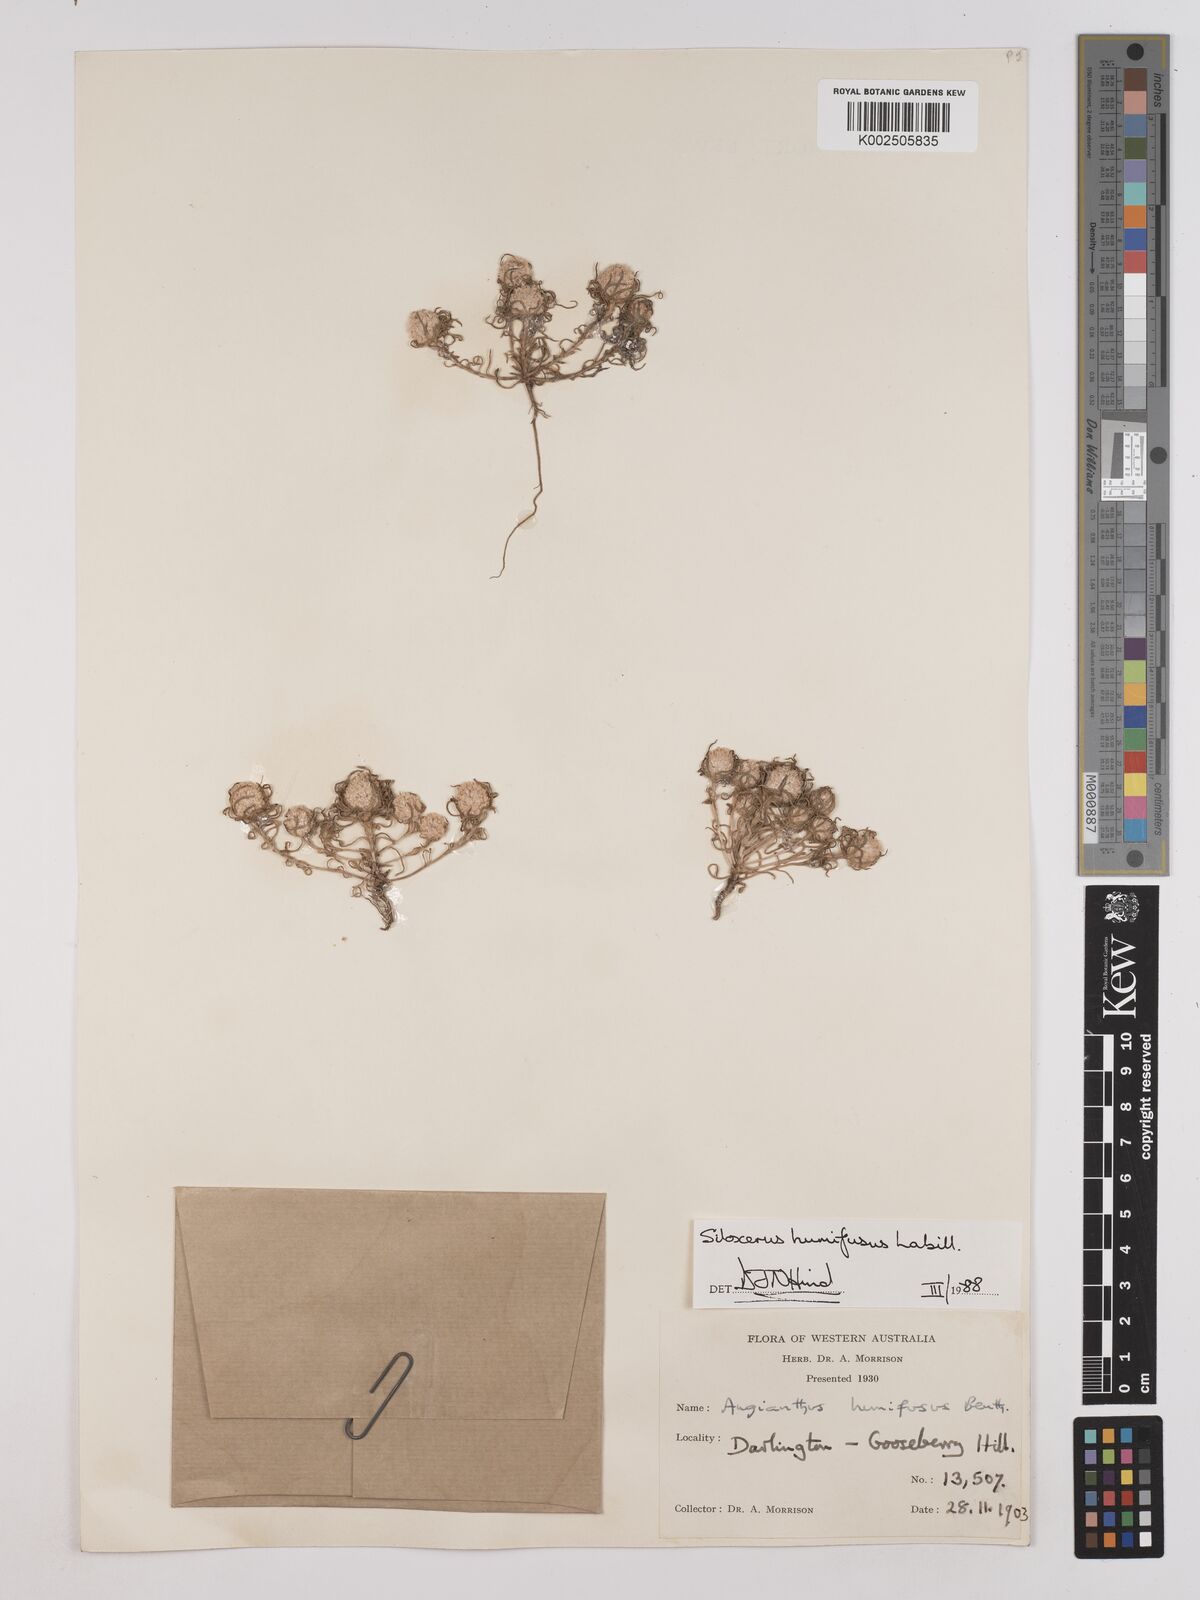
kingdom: Plantae
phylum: Tracheophyta
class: Magnoliopsida
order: Asterales
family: Asteraceae
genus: Siloxerus
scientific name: Siloxerus humifusus
